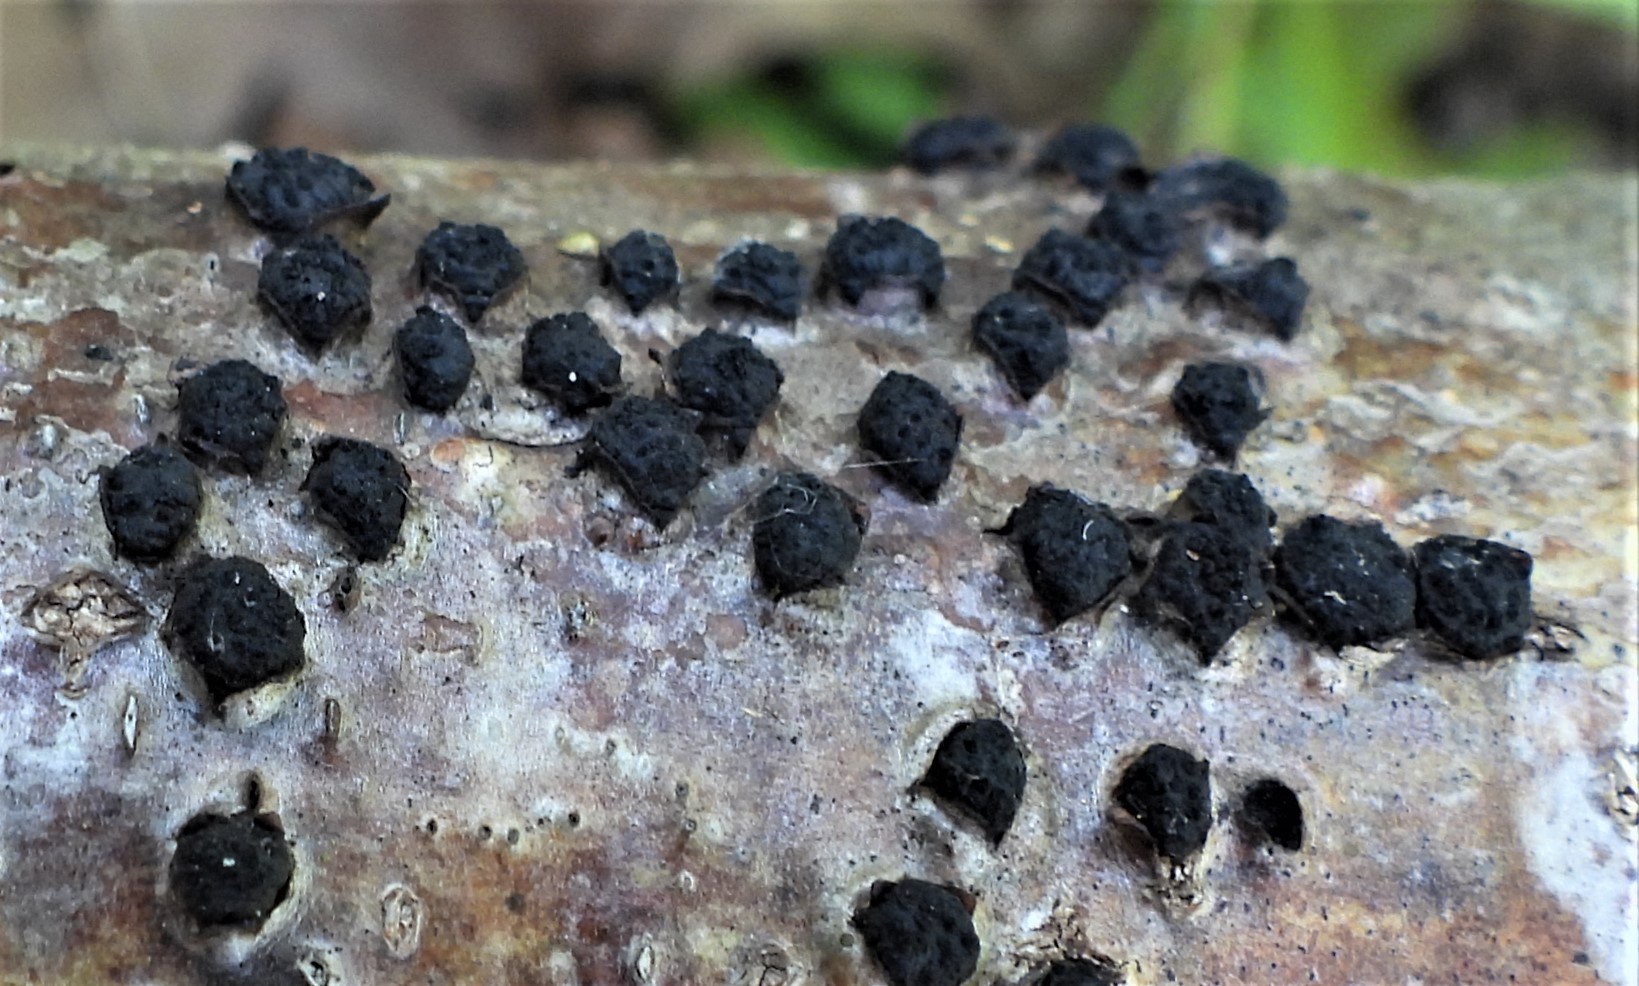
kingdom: Fungi
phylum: Ascomycota
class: Sordariomycetes
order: Xylariales
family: Diatrypaceae
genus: Diatrypella
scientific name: Diatrypella quercina
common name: ege-kulskorpe
